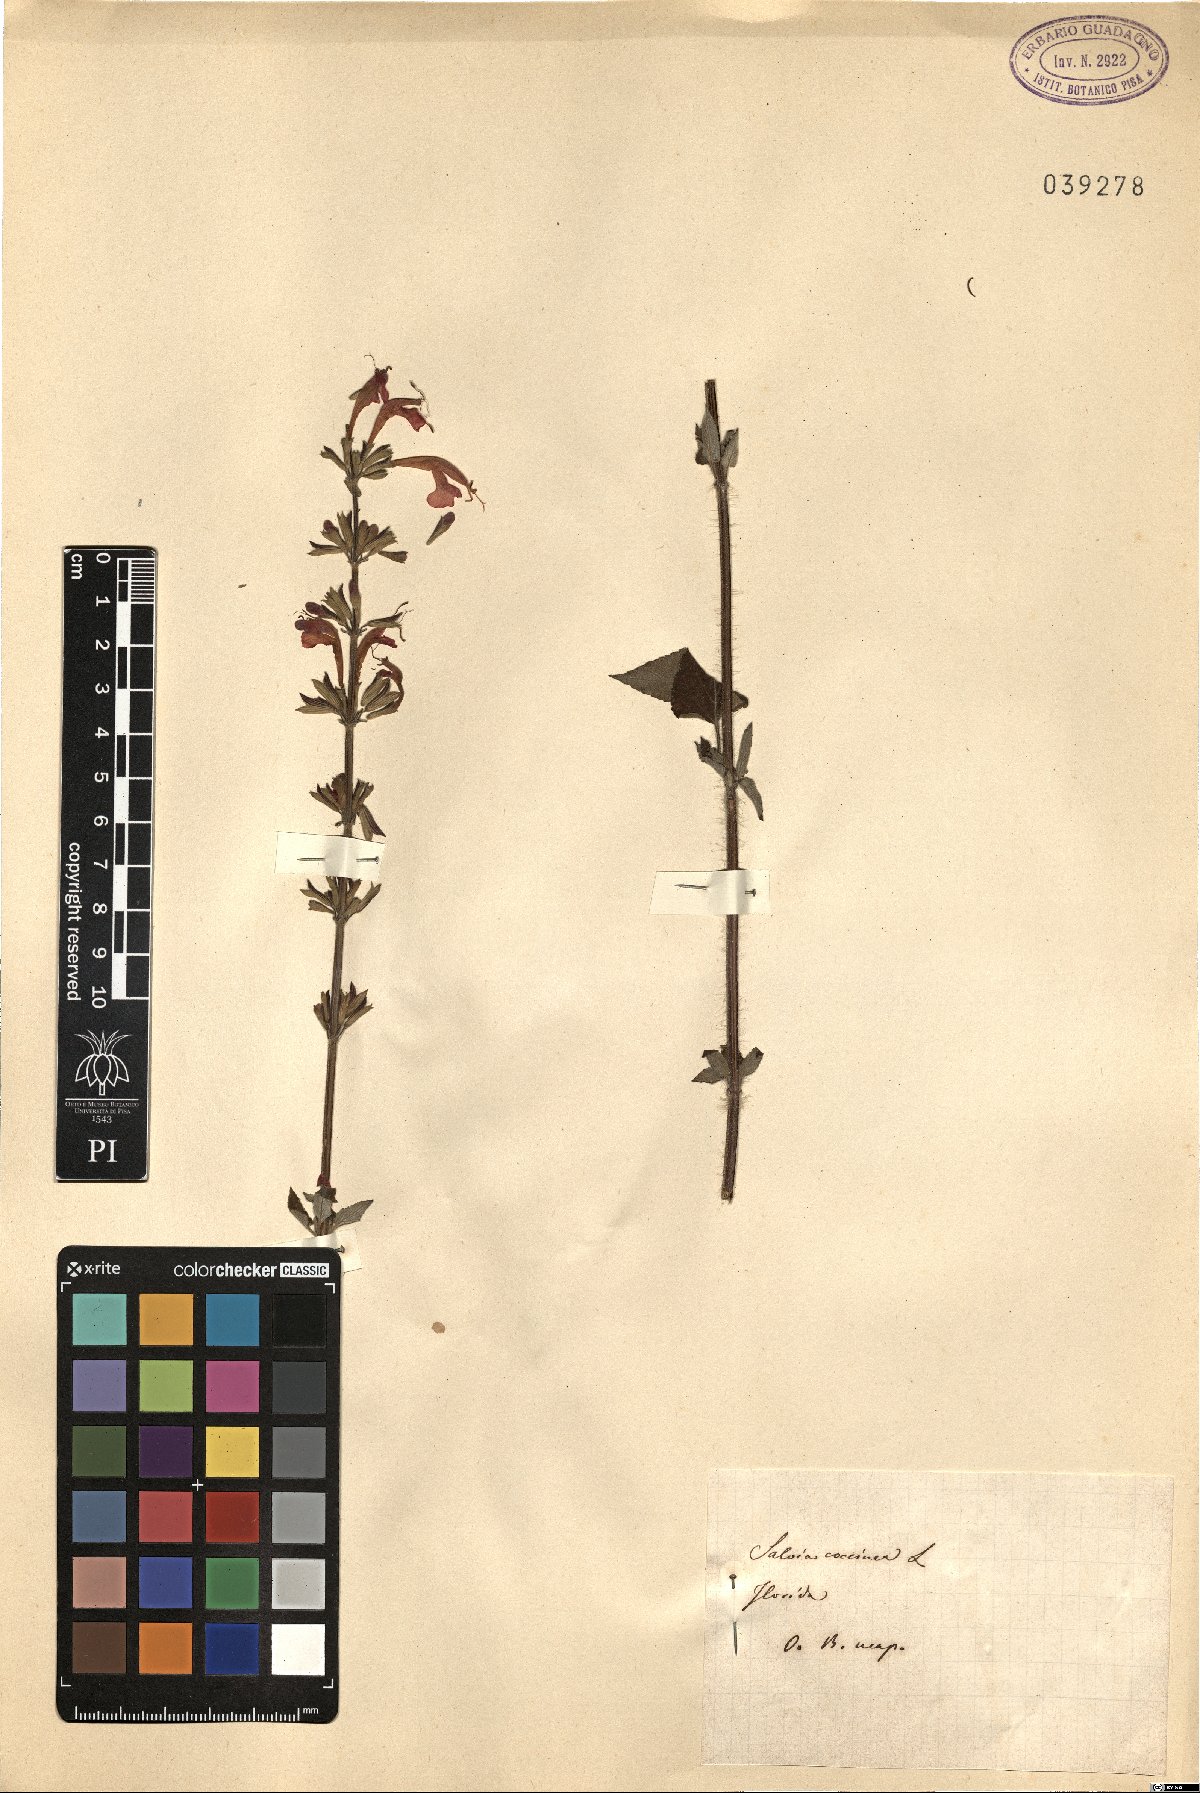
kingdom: Plantae
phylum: Tracheophyta
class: Magnoliopsida
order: Lamiales
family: Lamiaceae
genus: Salvia
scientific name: Salvia coccinea
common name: Blood sage
